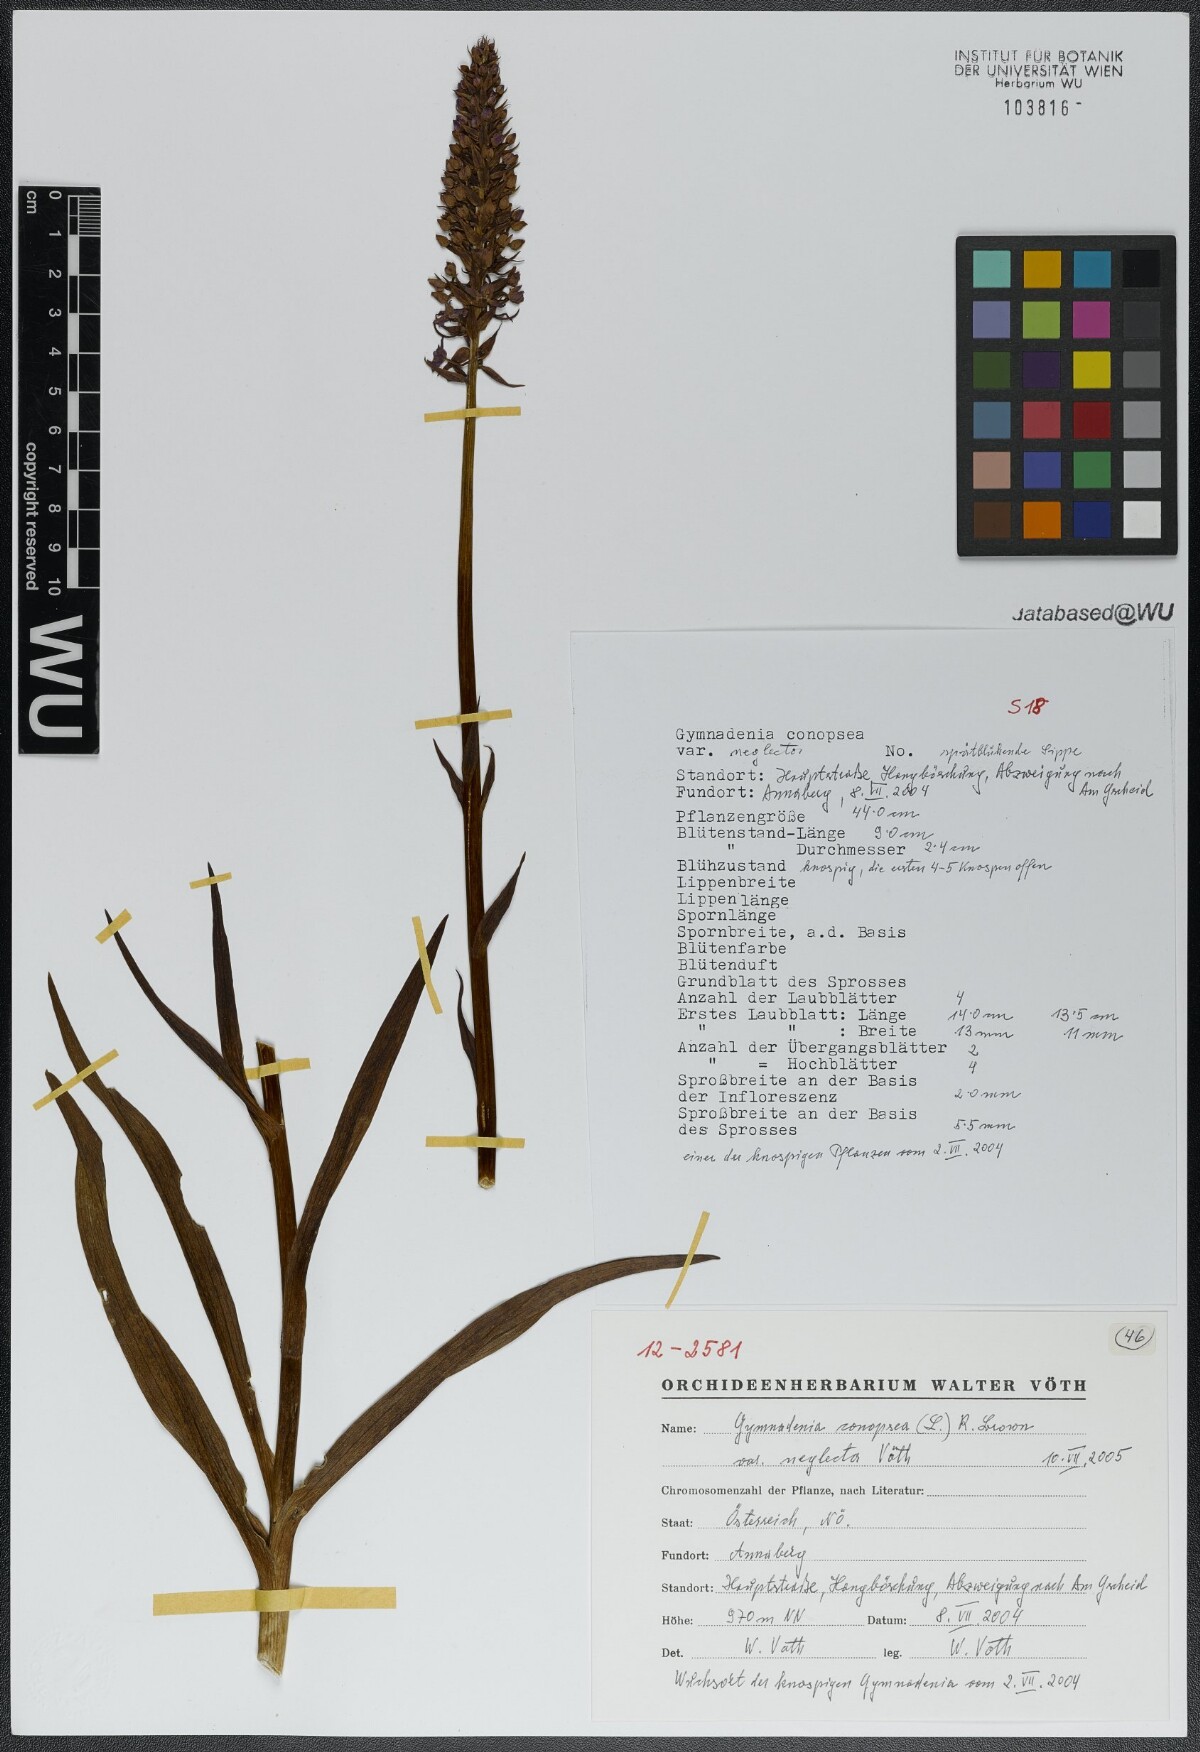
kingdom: Plantae
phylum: Tracheophyta
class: Liliopsida
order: Asparagales
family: Orchidaceae
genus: Gymnadenia
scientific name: Gymnadenia conopsea
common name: Fragrant orchid
